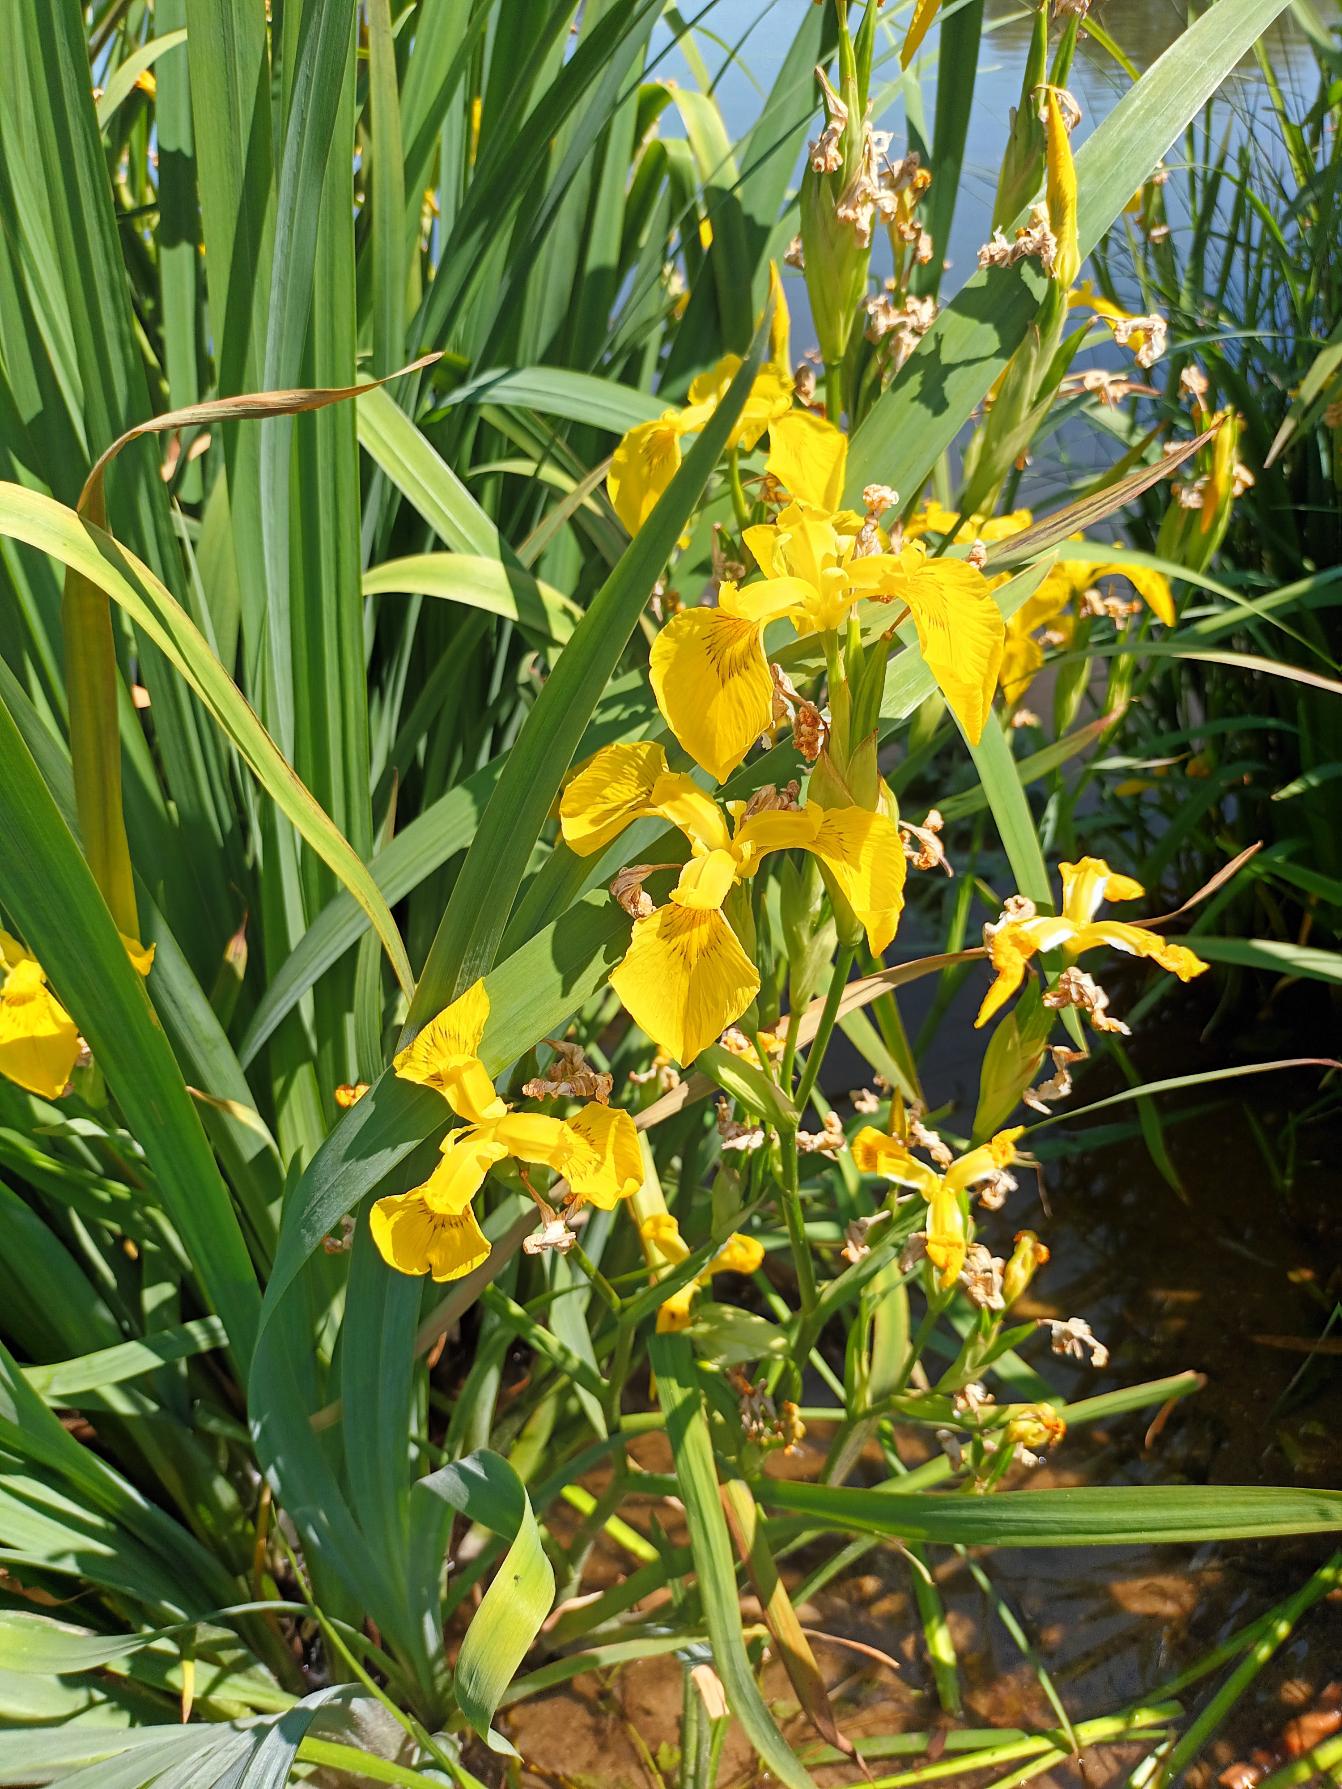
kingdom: Plantae
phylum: Tracheophyta
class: Liliopsida
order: Asparagales
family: Iridaceae
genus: Iris
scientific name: Iris pseudacorus
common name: Gul iris
